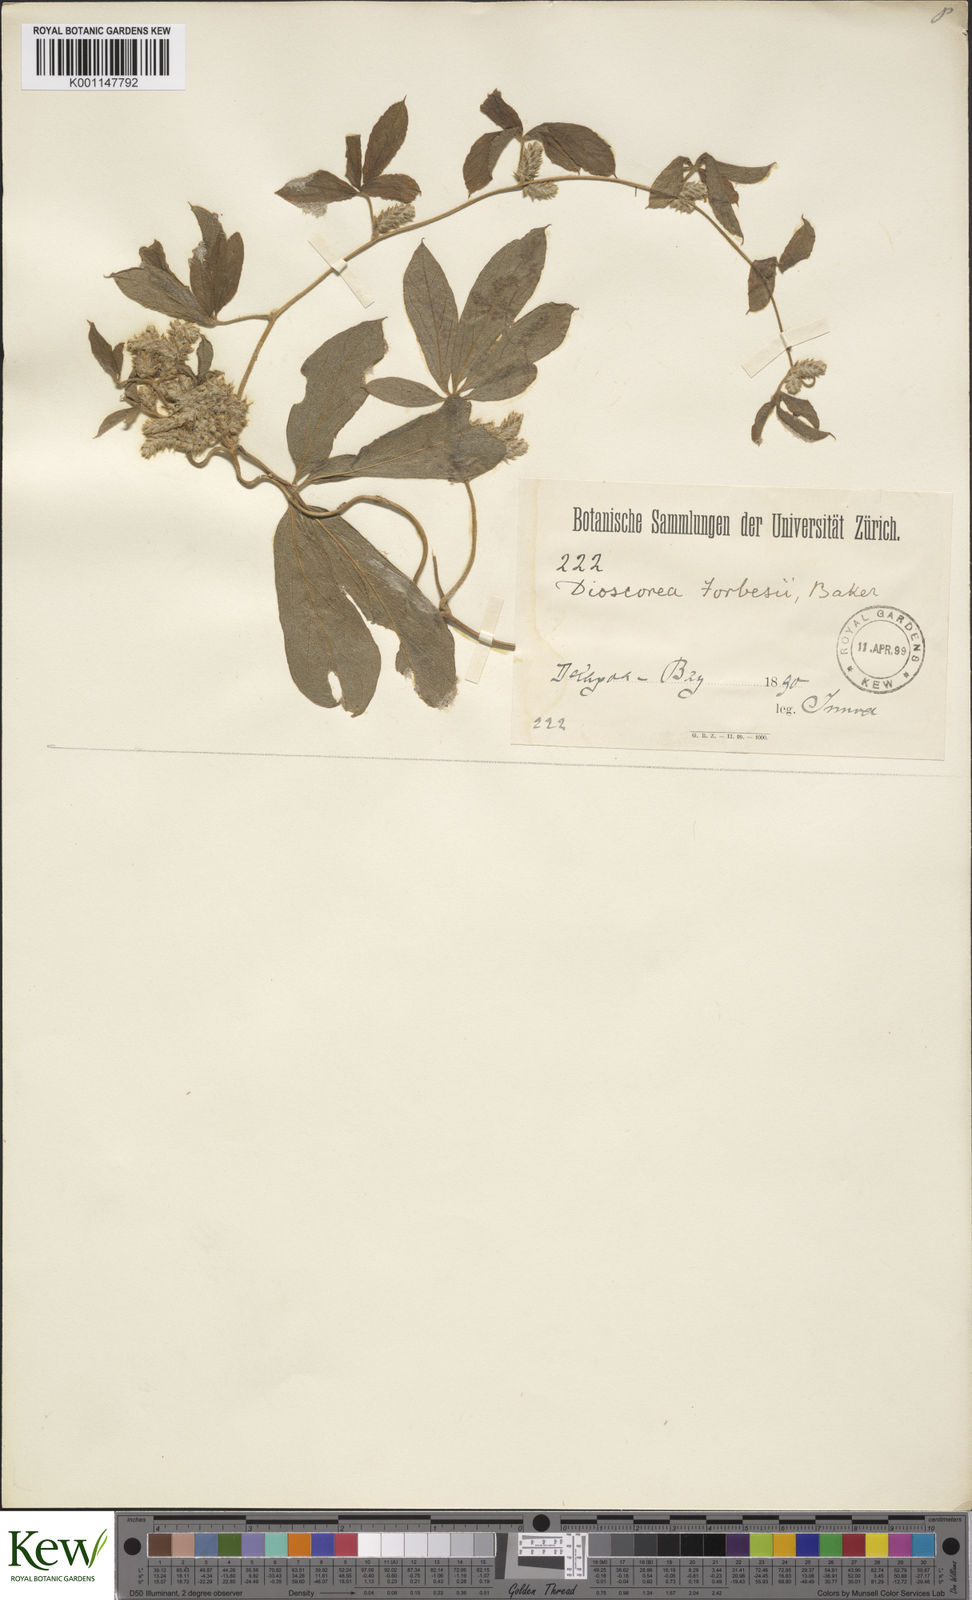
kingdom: Plantae
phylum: Tracheophyta
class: Liliopsida
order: Dioscoreales
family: Dioscoreaceae
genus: Dioscorea
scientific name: Dioscorea quartiniana
